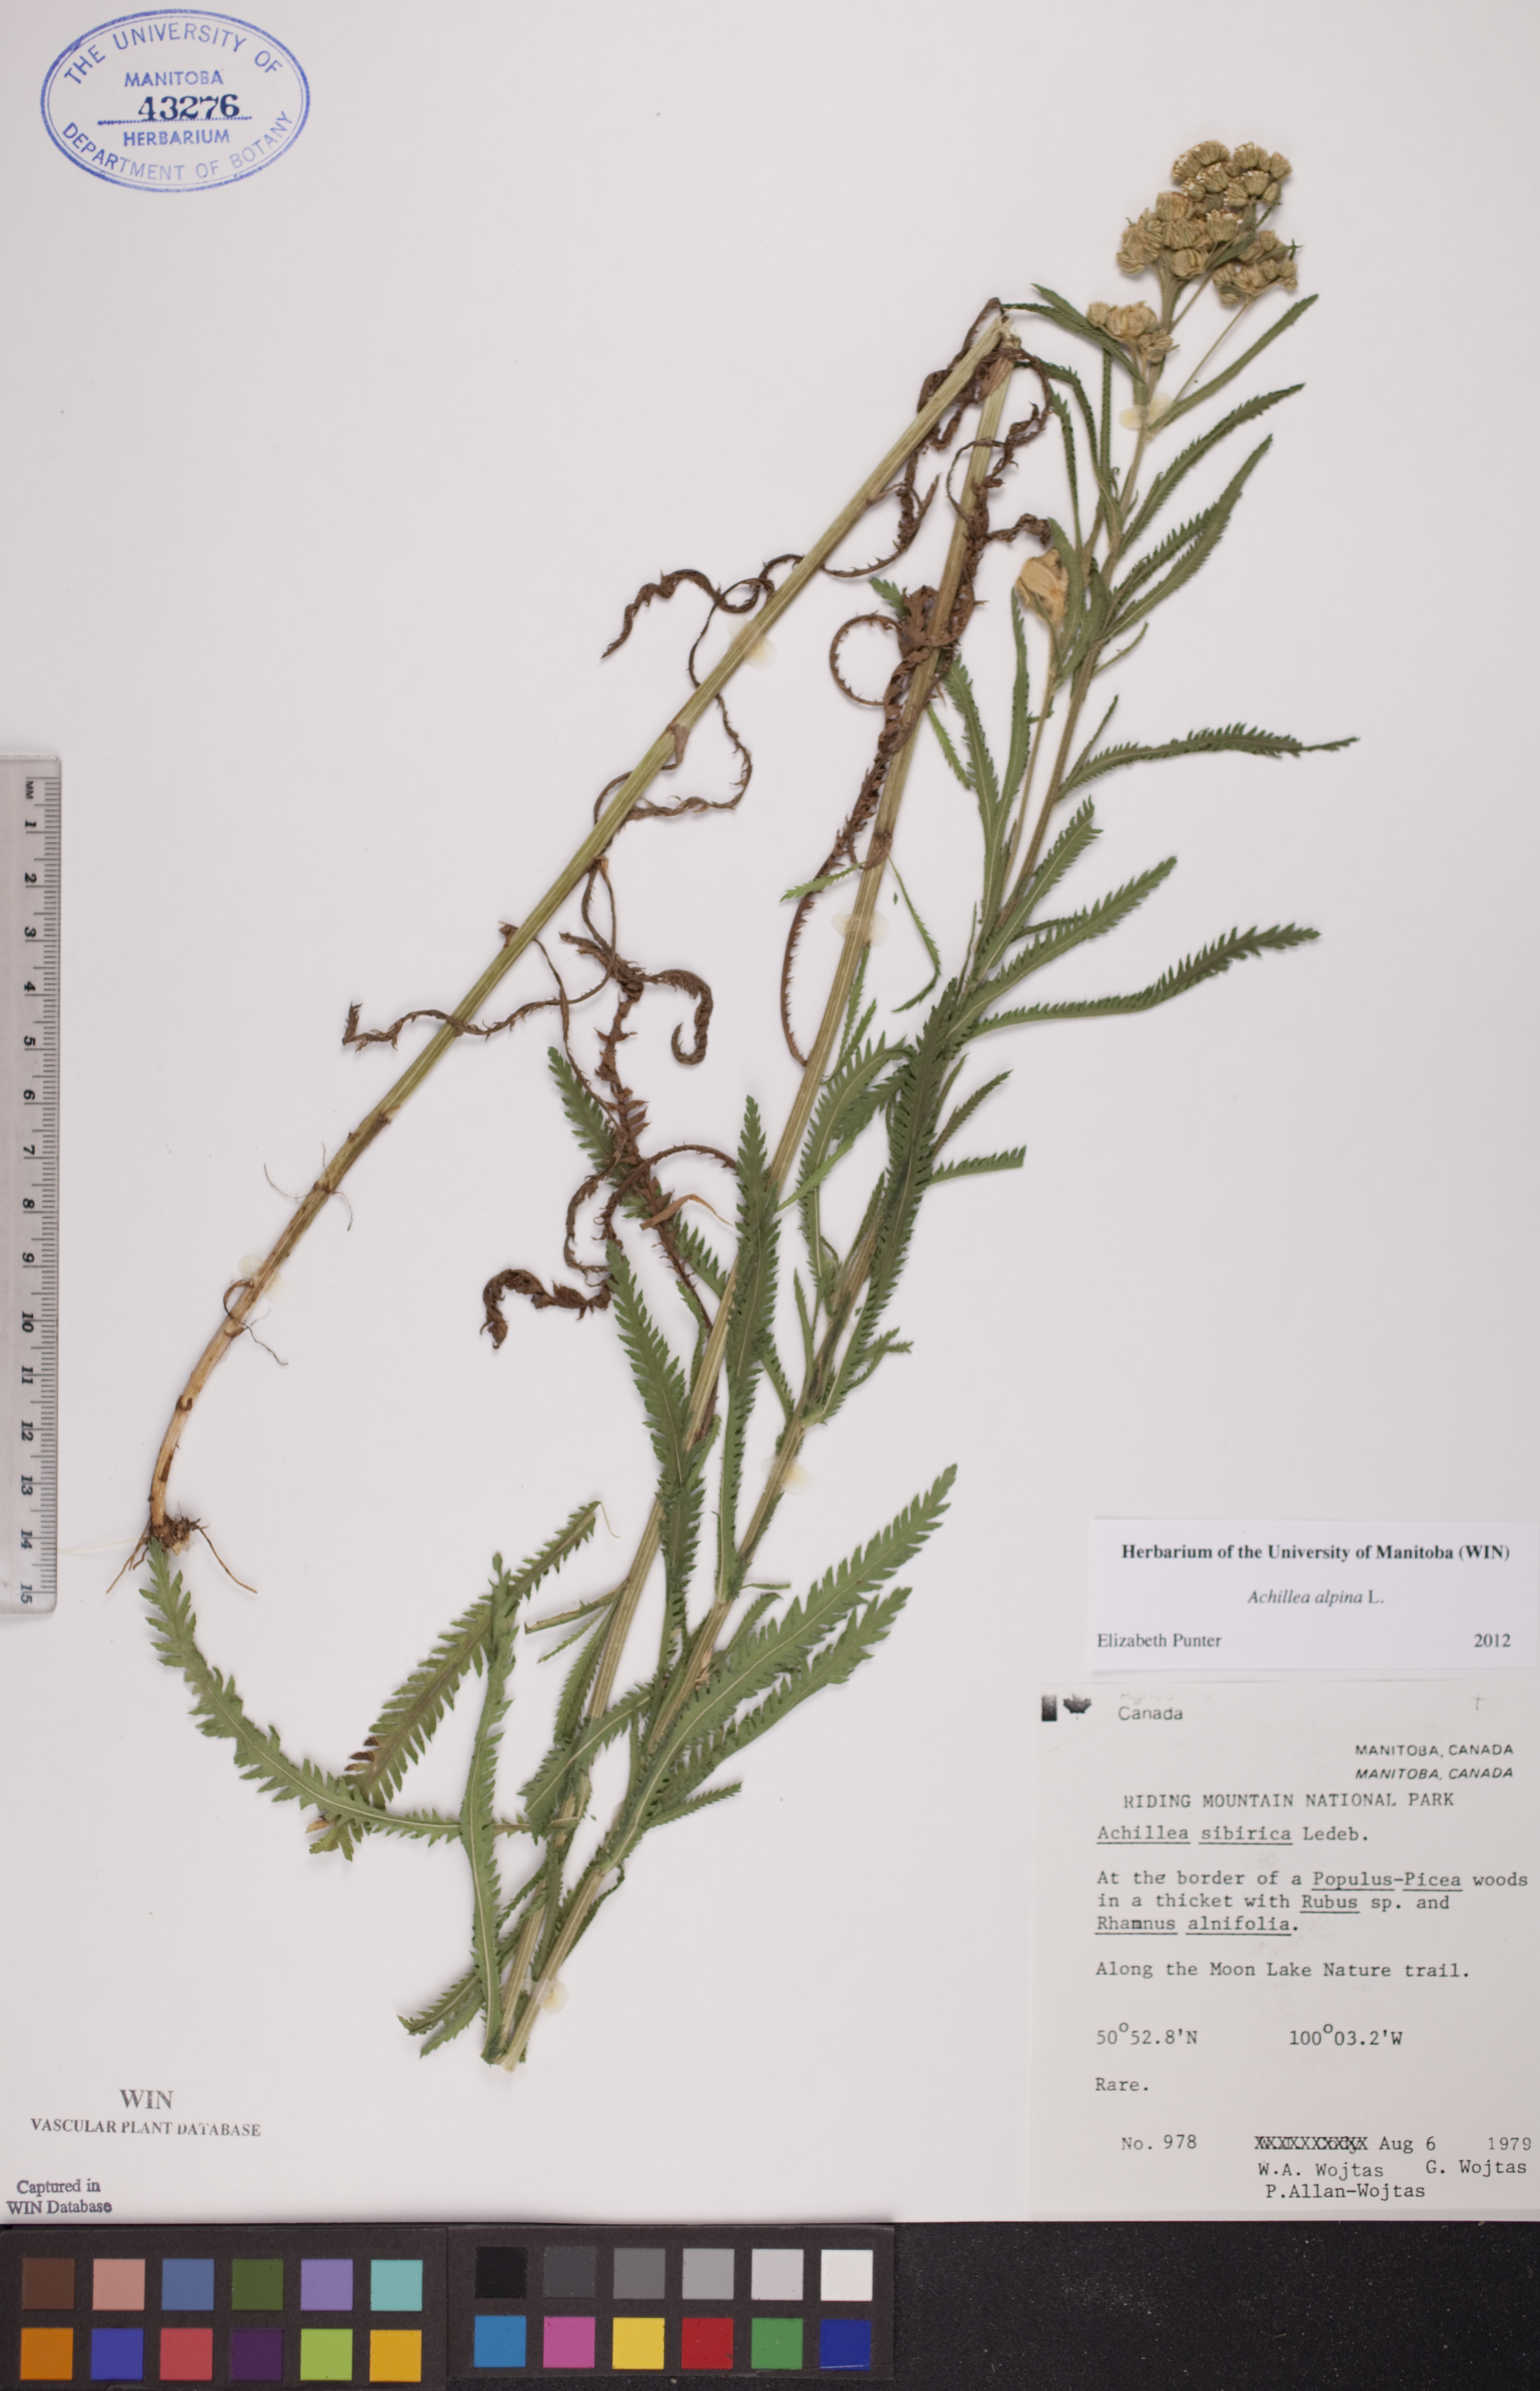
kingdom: Plantae
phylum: Tracheophyta
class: Magnoliopsida
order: Asterales
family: Asteraceae
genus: Achillea
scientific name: Achillea alpina
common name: Siberian yarrow
